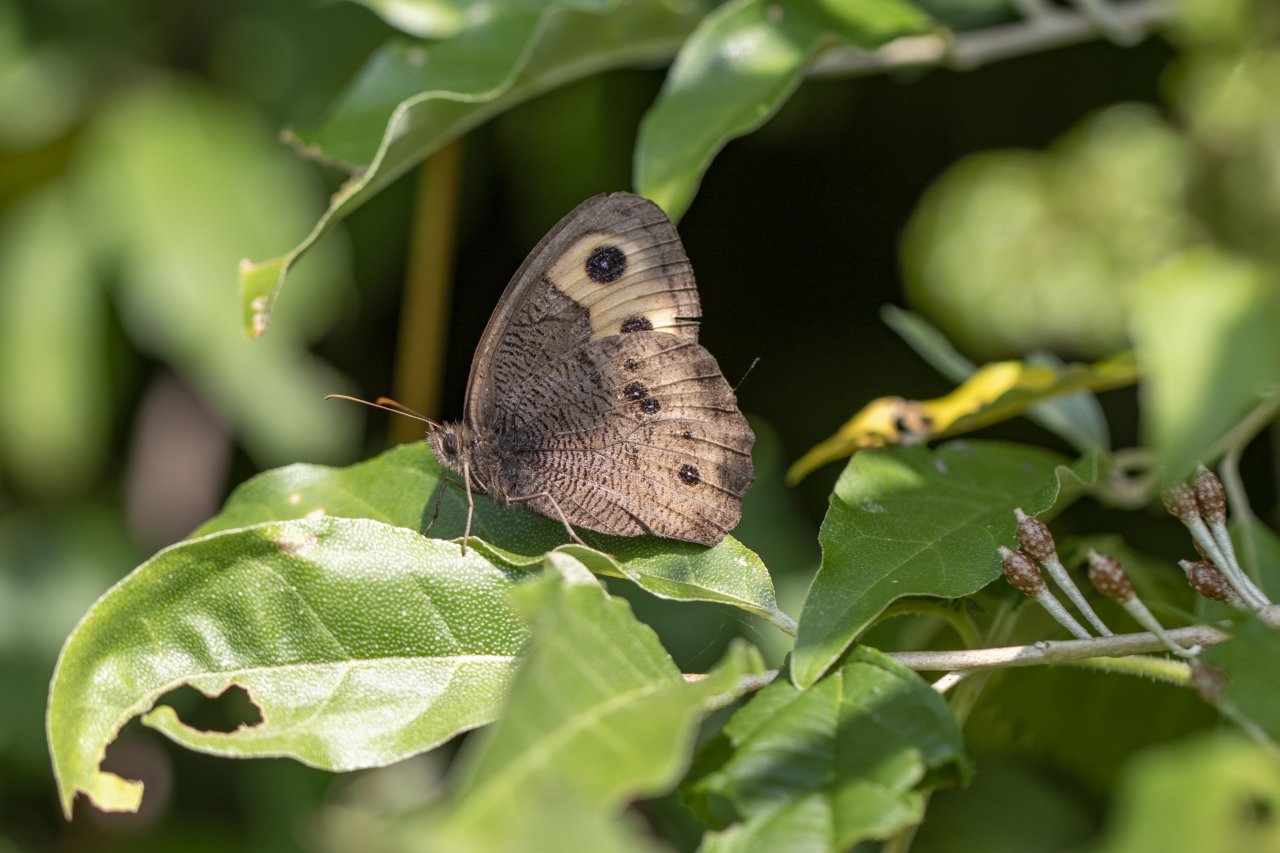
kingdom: Animalia
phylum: Arthropoda
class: Insecta
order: Lepidoptera
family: Nymphalidae
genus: Cercyonis
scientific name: Cercyonis pegala
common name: Common Wood-Nymph
